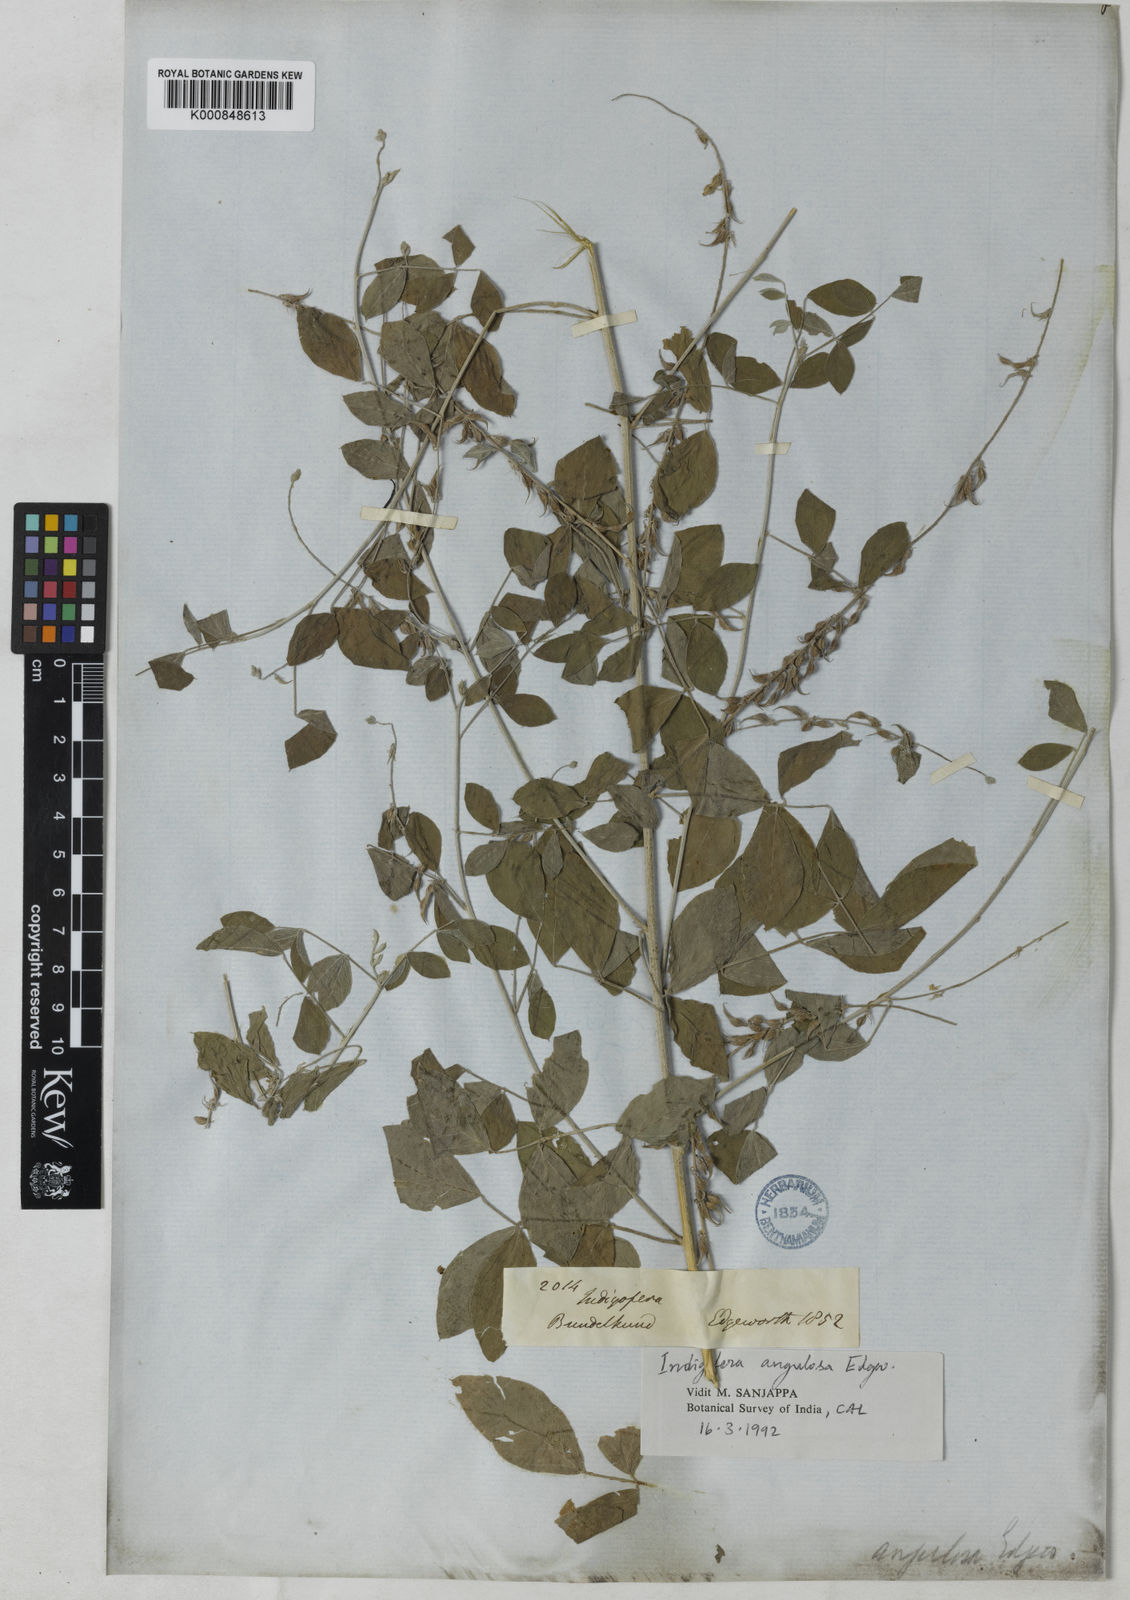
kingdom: Plantae
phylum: Tracheophyta
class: Magnoliopsida
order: Fabales
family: Fabaceae
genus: Indigofera
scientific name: Indigofera angulosa
